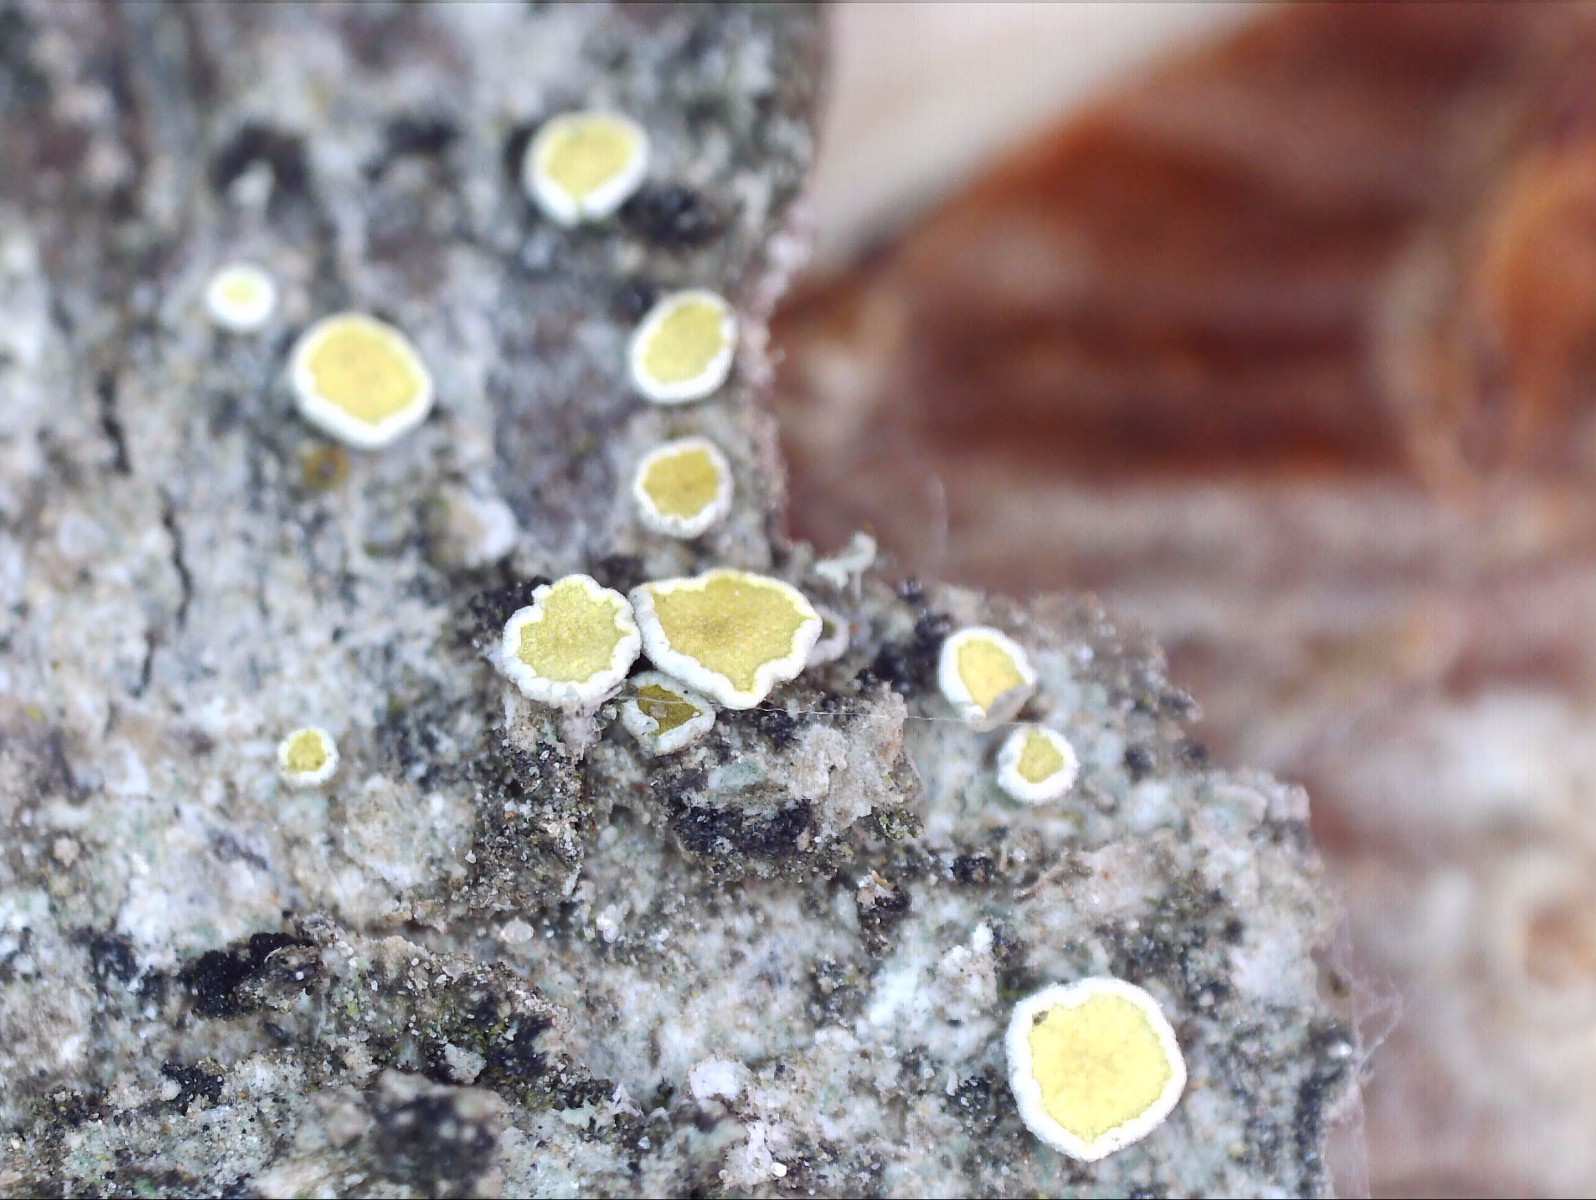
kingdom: Fungi
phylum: Ascomycota
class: Lecanoromycetes
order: Teloschistales
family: Teloschistaceae
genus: Caloplaca
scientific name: Caloplaca cerina
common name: voksgul orangelav
